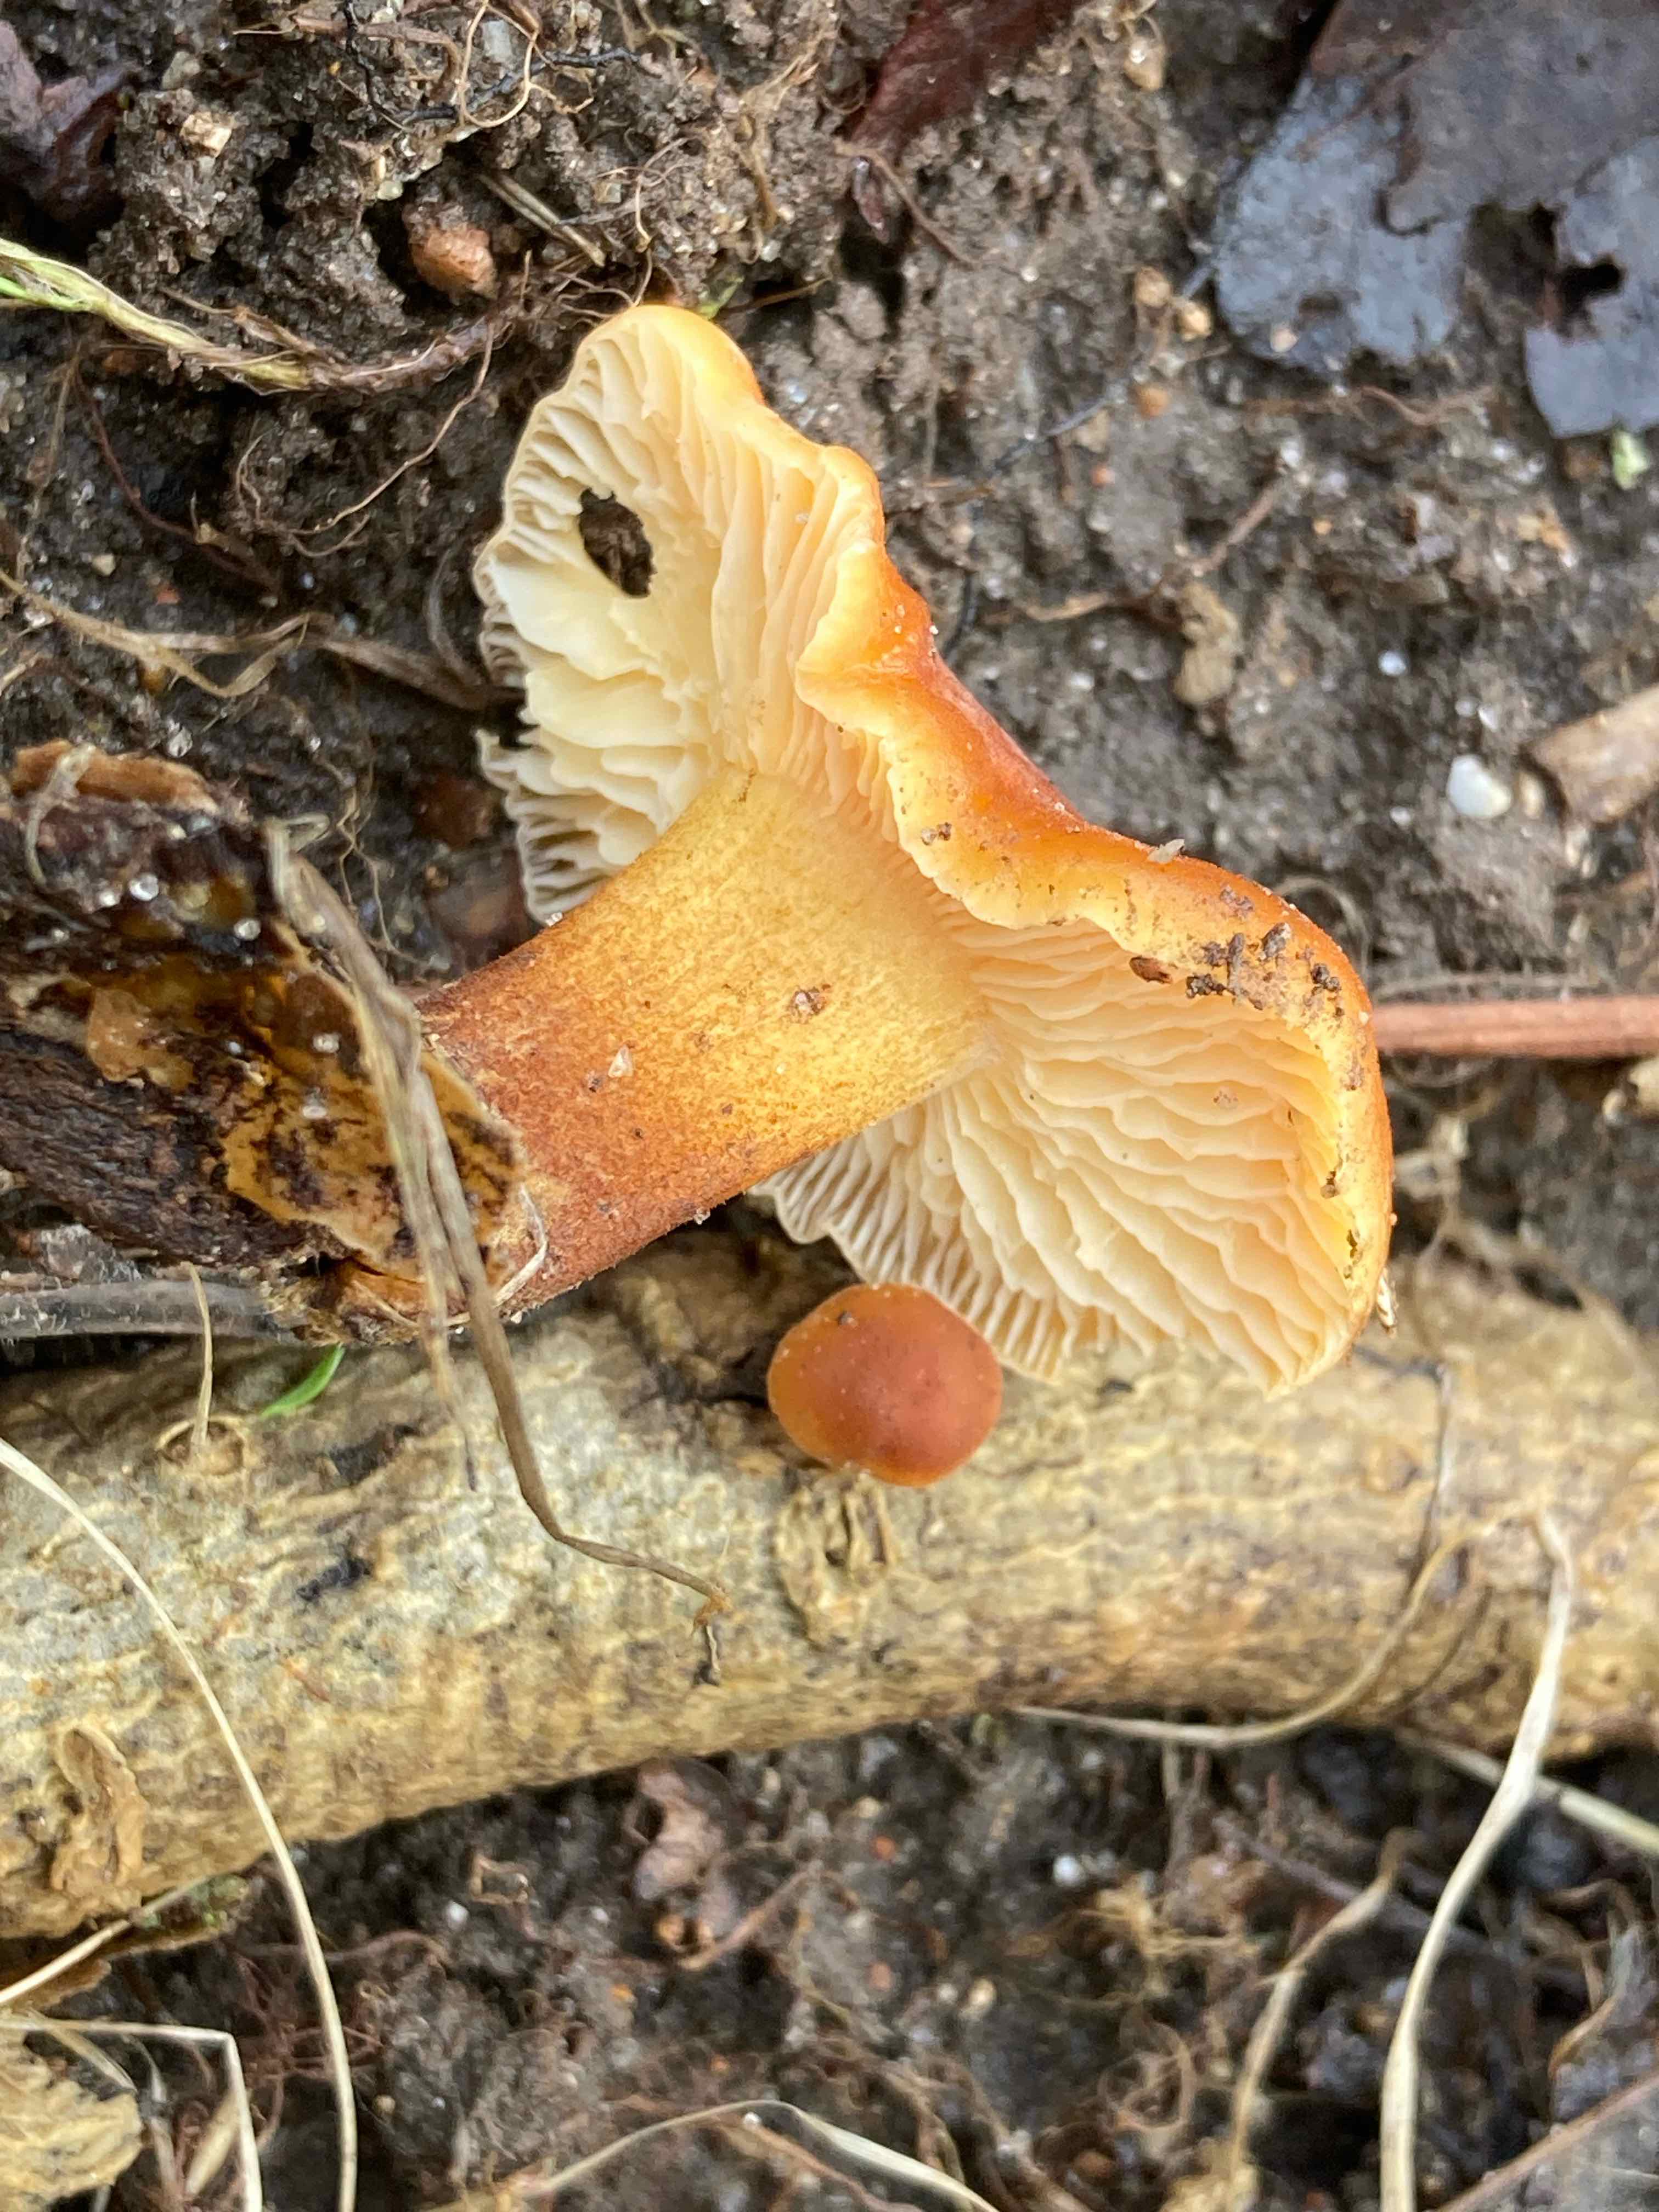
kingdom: Fungi
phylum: Basidiomycota
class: Agaricomycetes
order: Agaricales
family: Physalacriaceae
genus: Flammulina
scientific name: Flammulina velutipes
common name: gul fløjlsfod
